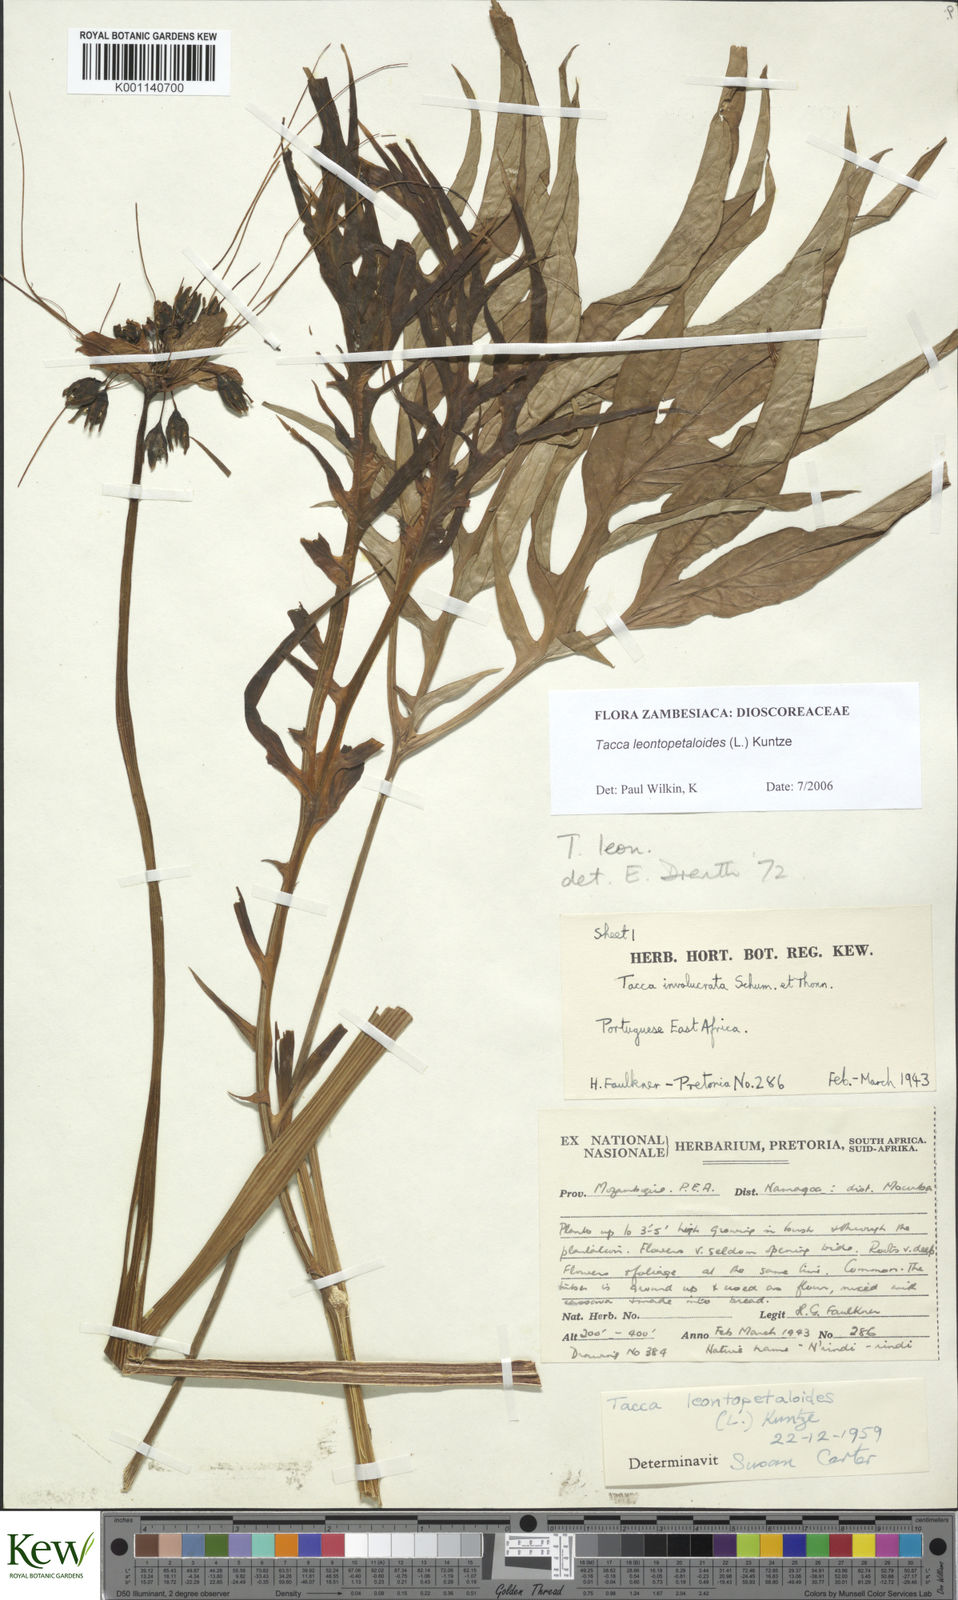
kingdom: Plantae
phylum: Tracheophyta
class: Liliopsida
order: Dioscoreales
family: Dioscoreaceae
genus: Tacca
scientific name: Tacca leontopetaloides
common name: Arrowroot
